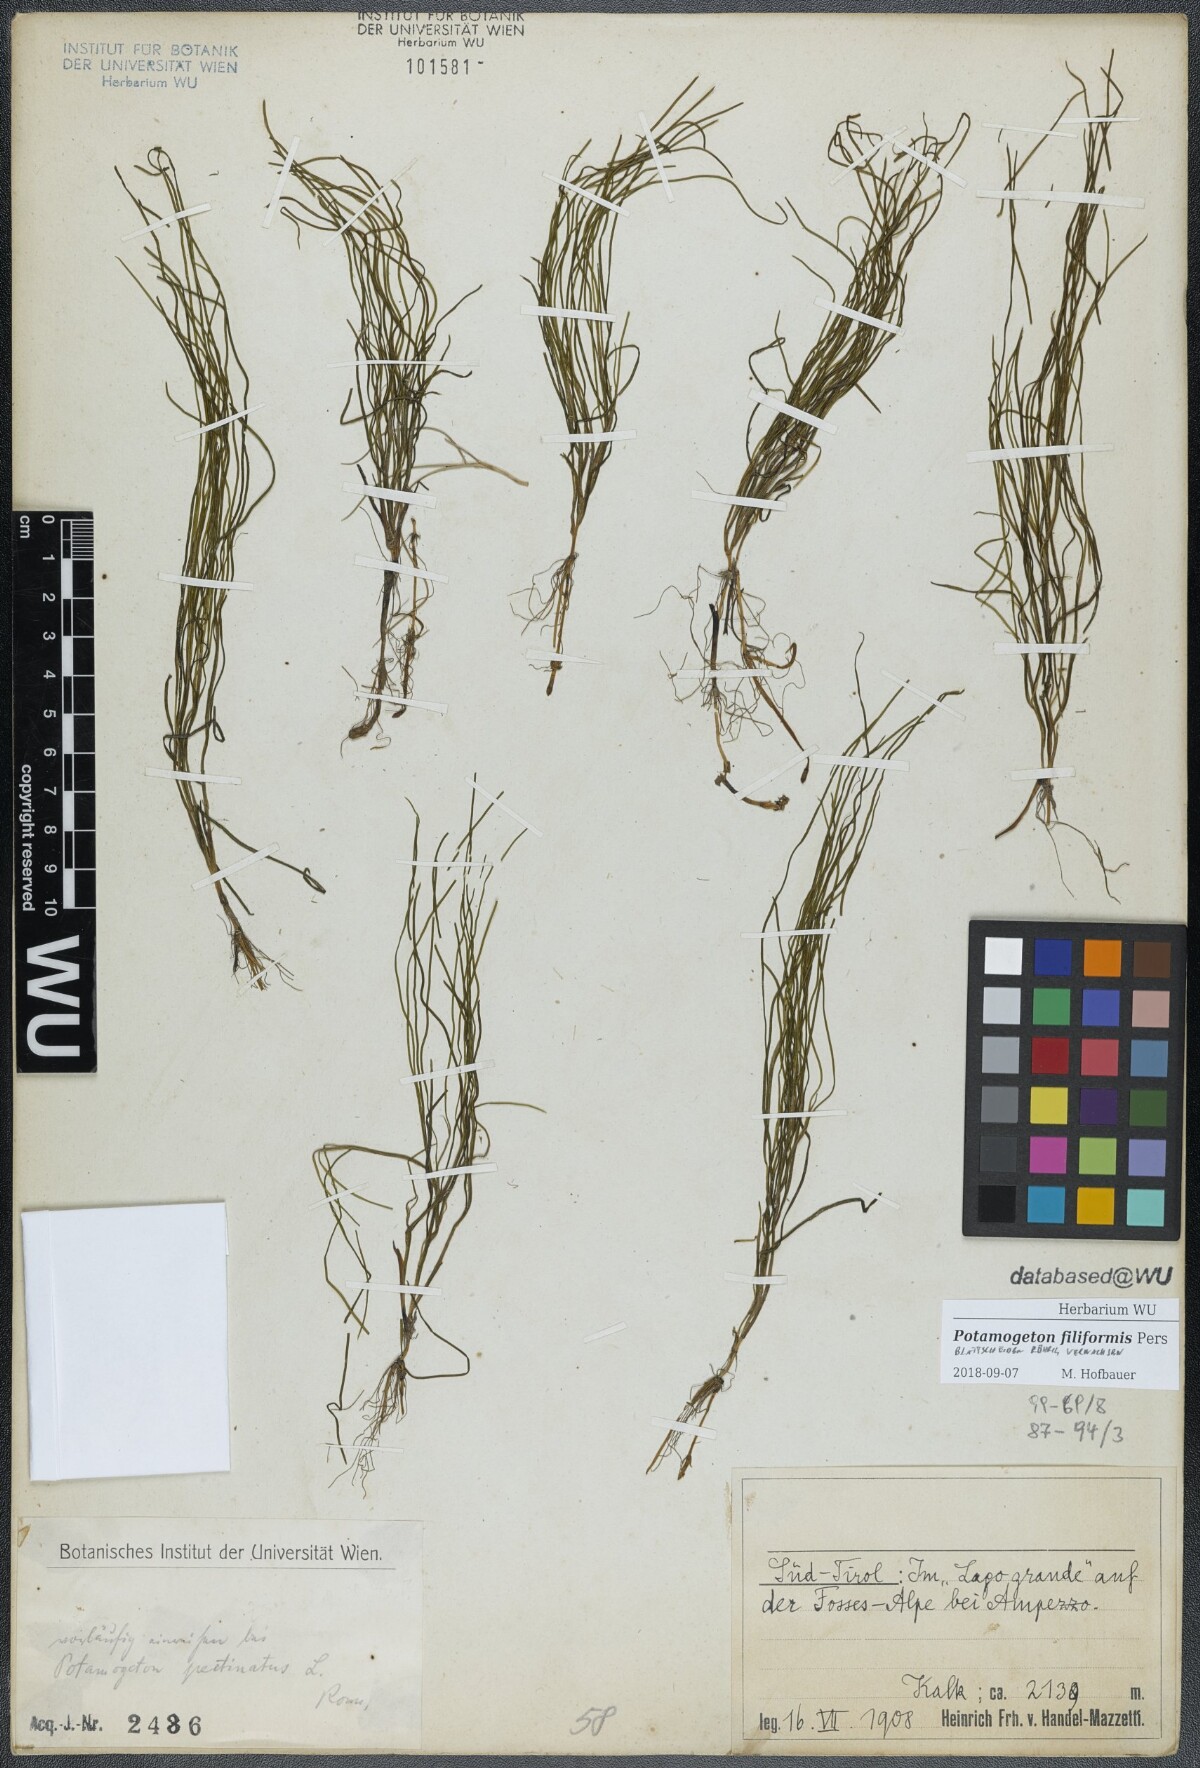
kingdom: Plantae
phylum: Tracheophyta
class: Liliopsida
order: Alismatales
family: Potamogetonaceae
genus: Stuckenia
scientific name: Stuckenia filiformis
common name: Alpine thread-leaved pondweed
